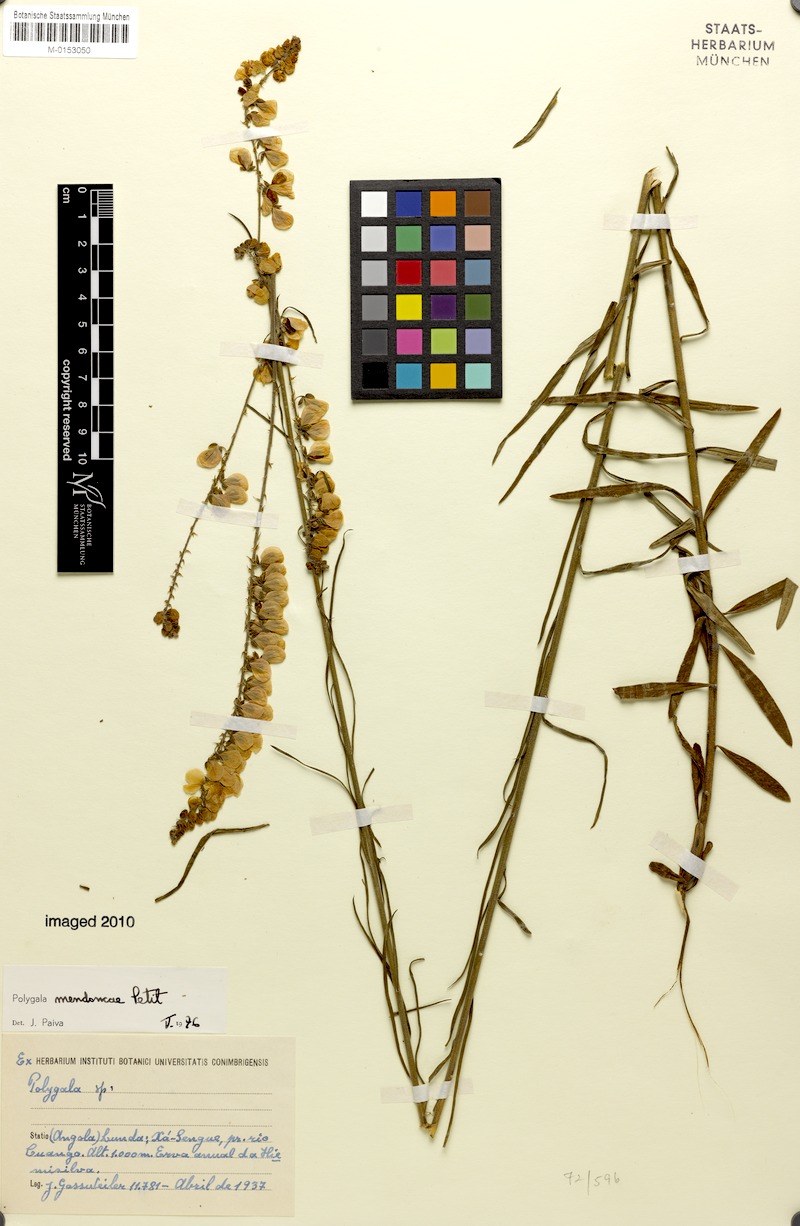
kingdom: Plantae
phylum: Tracheophyta
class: Magnoliopsida
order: Fabales
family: Polygalaceae
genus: Polygala
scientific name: Polygala mendoncae
